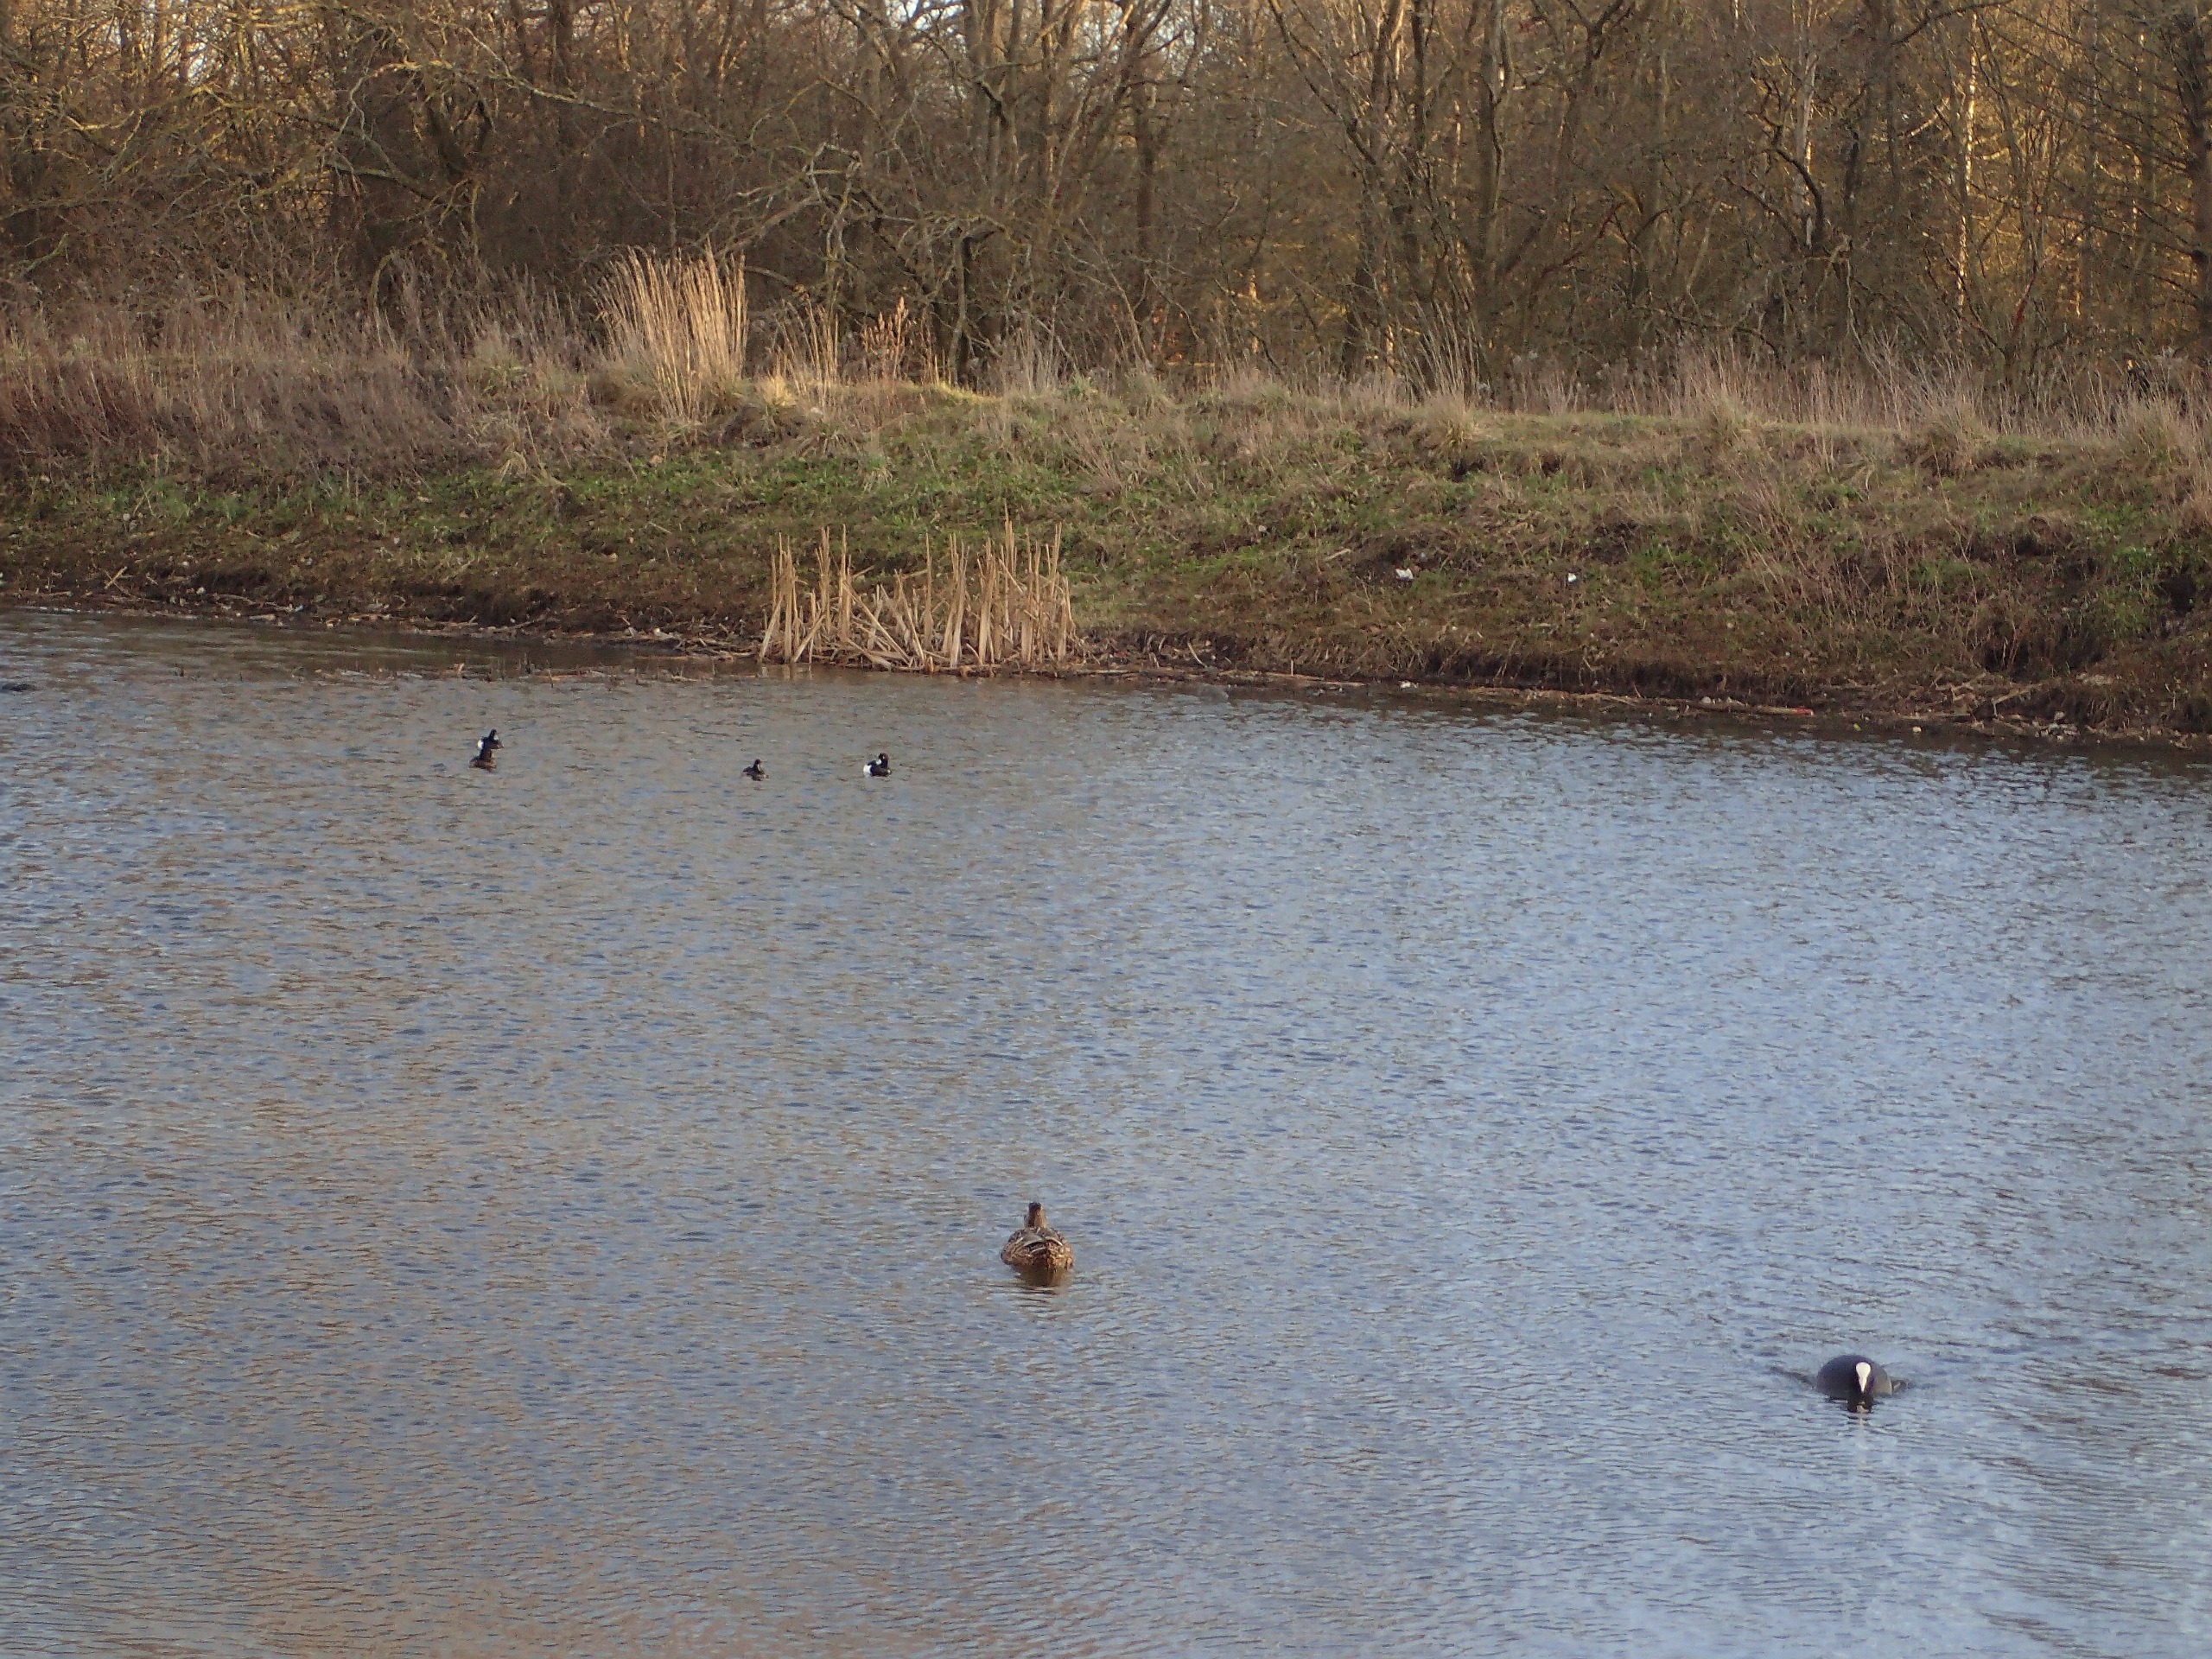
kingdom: Animalia
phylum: Chordata
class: Aves
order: Anseriformes
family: Anatidae
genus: Aythya
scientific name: Aythya fuligula
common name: Troldand
